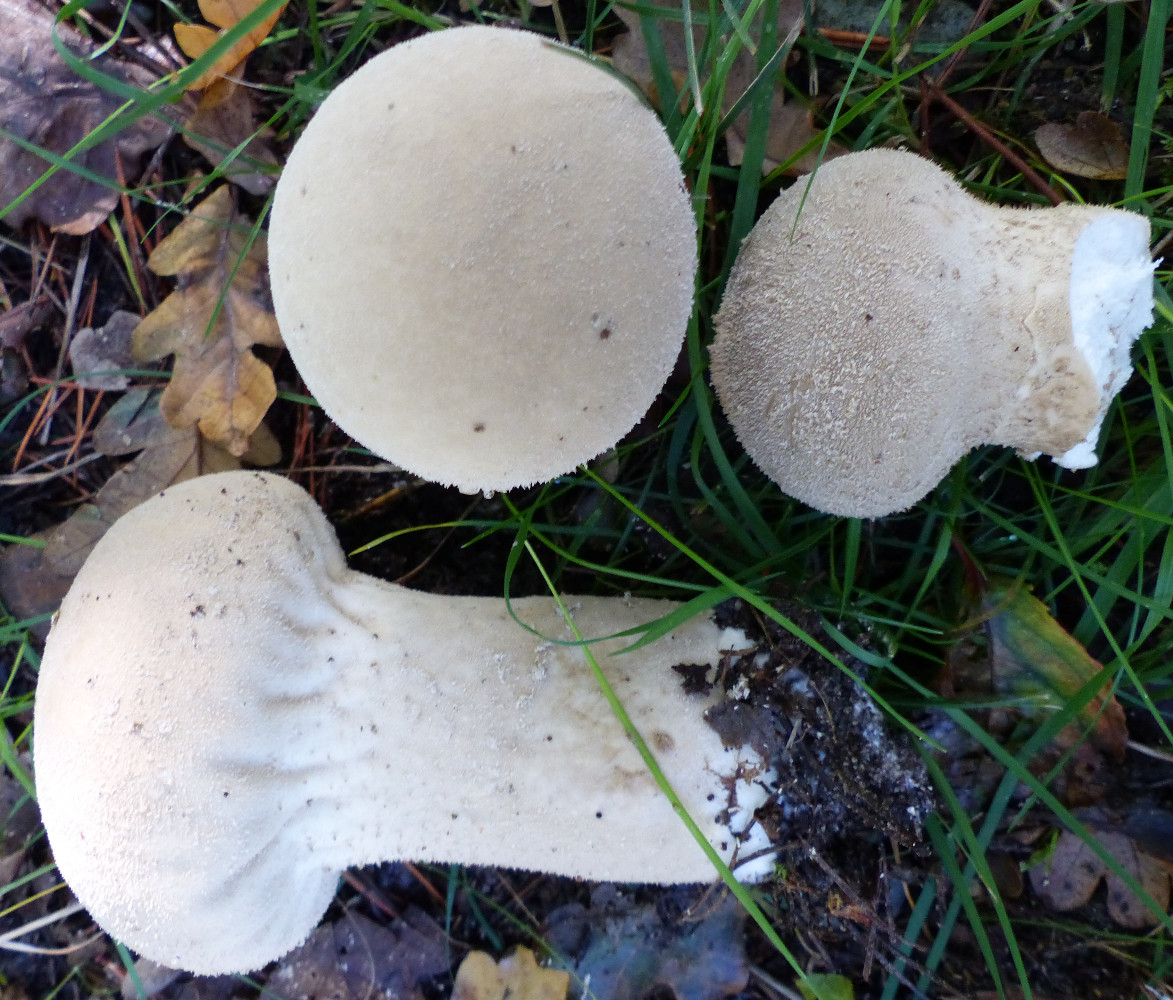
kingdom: Fungi
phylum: Basidiomycota
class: Agaricomycetes
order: Agaricales
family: Lycoperdaceae
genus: Lycoperdon
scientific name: Lycoperdon excipuliforme
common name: højstokket støvbold
